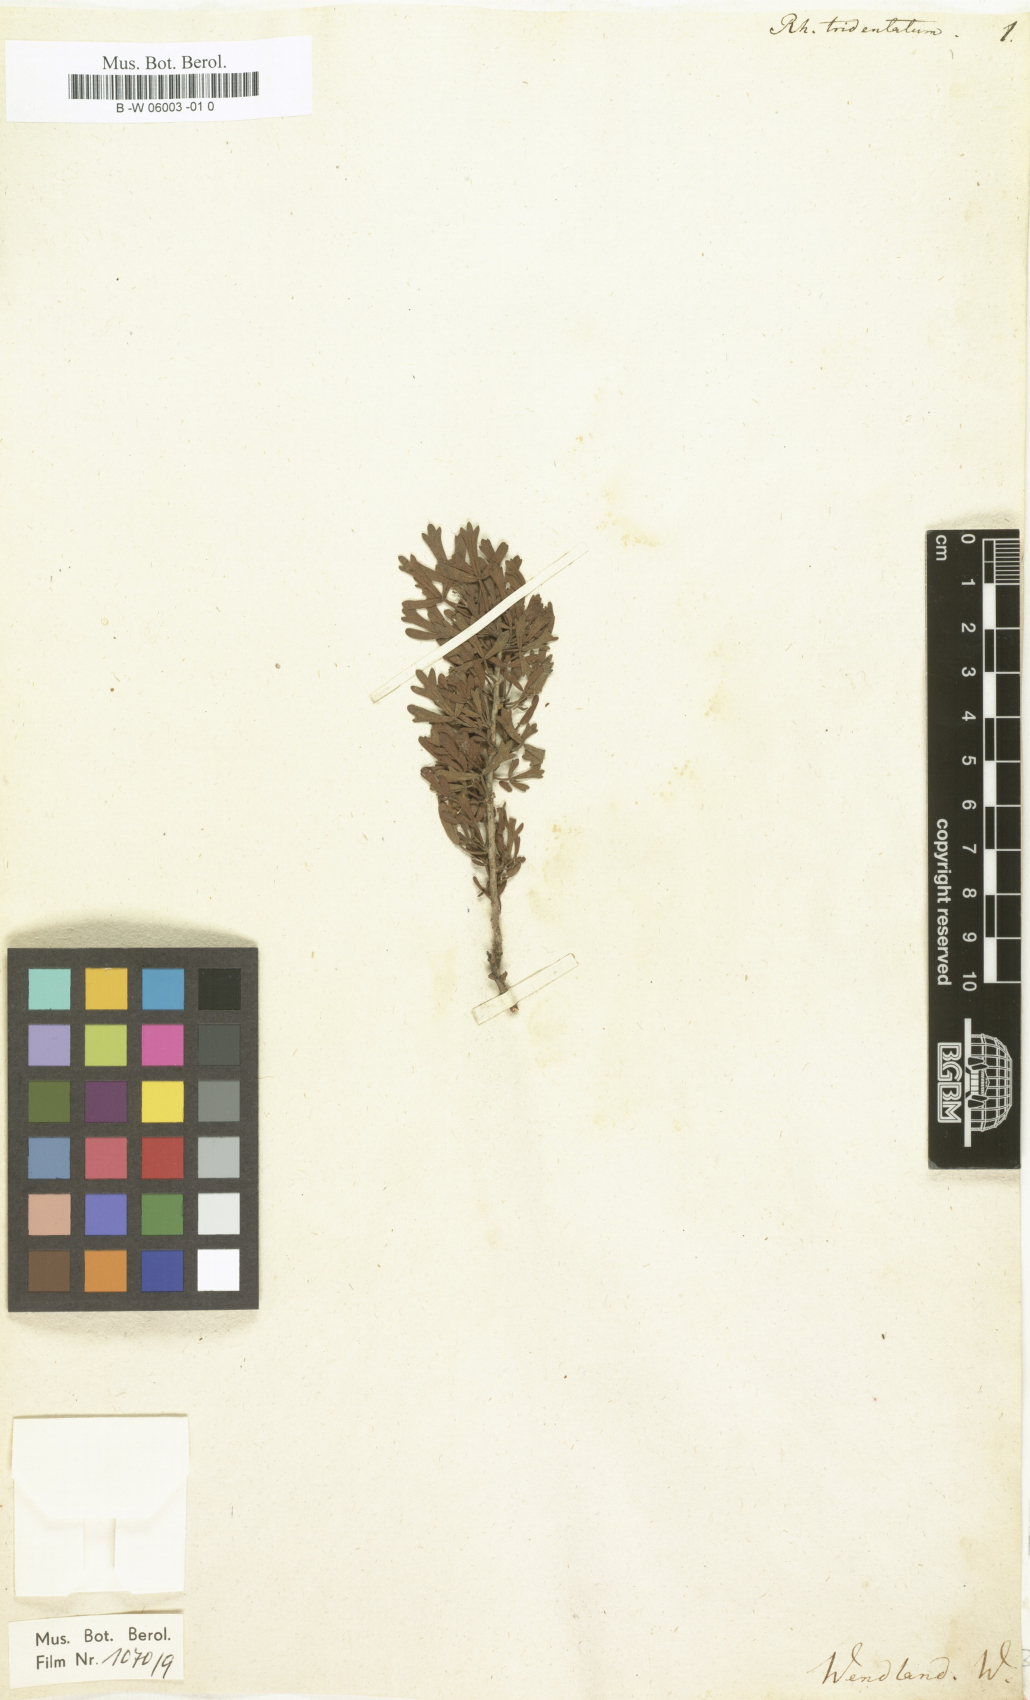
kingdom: Plantae
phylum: Tracheophyta
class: Magnoliopsida
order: Sapindales
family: Anacardiaceae
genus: Searsia
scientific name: Searsia
